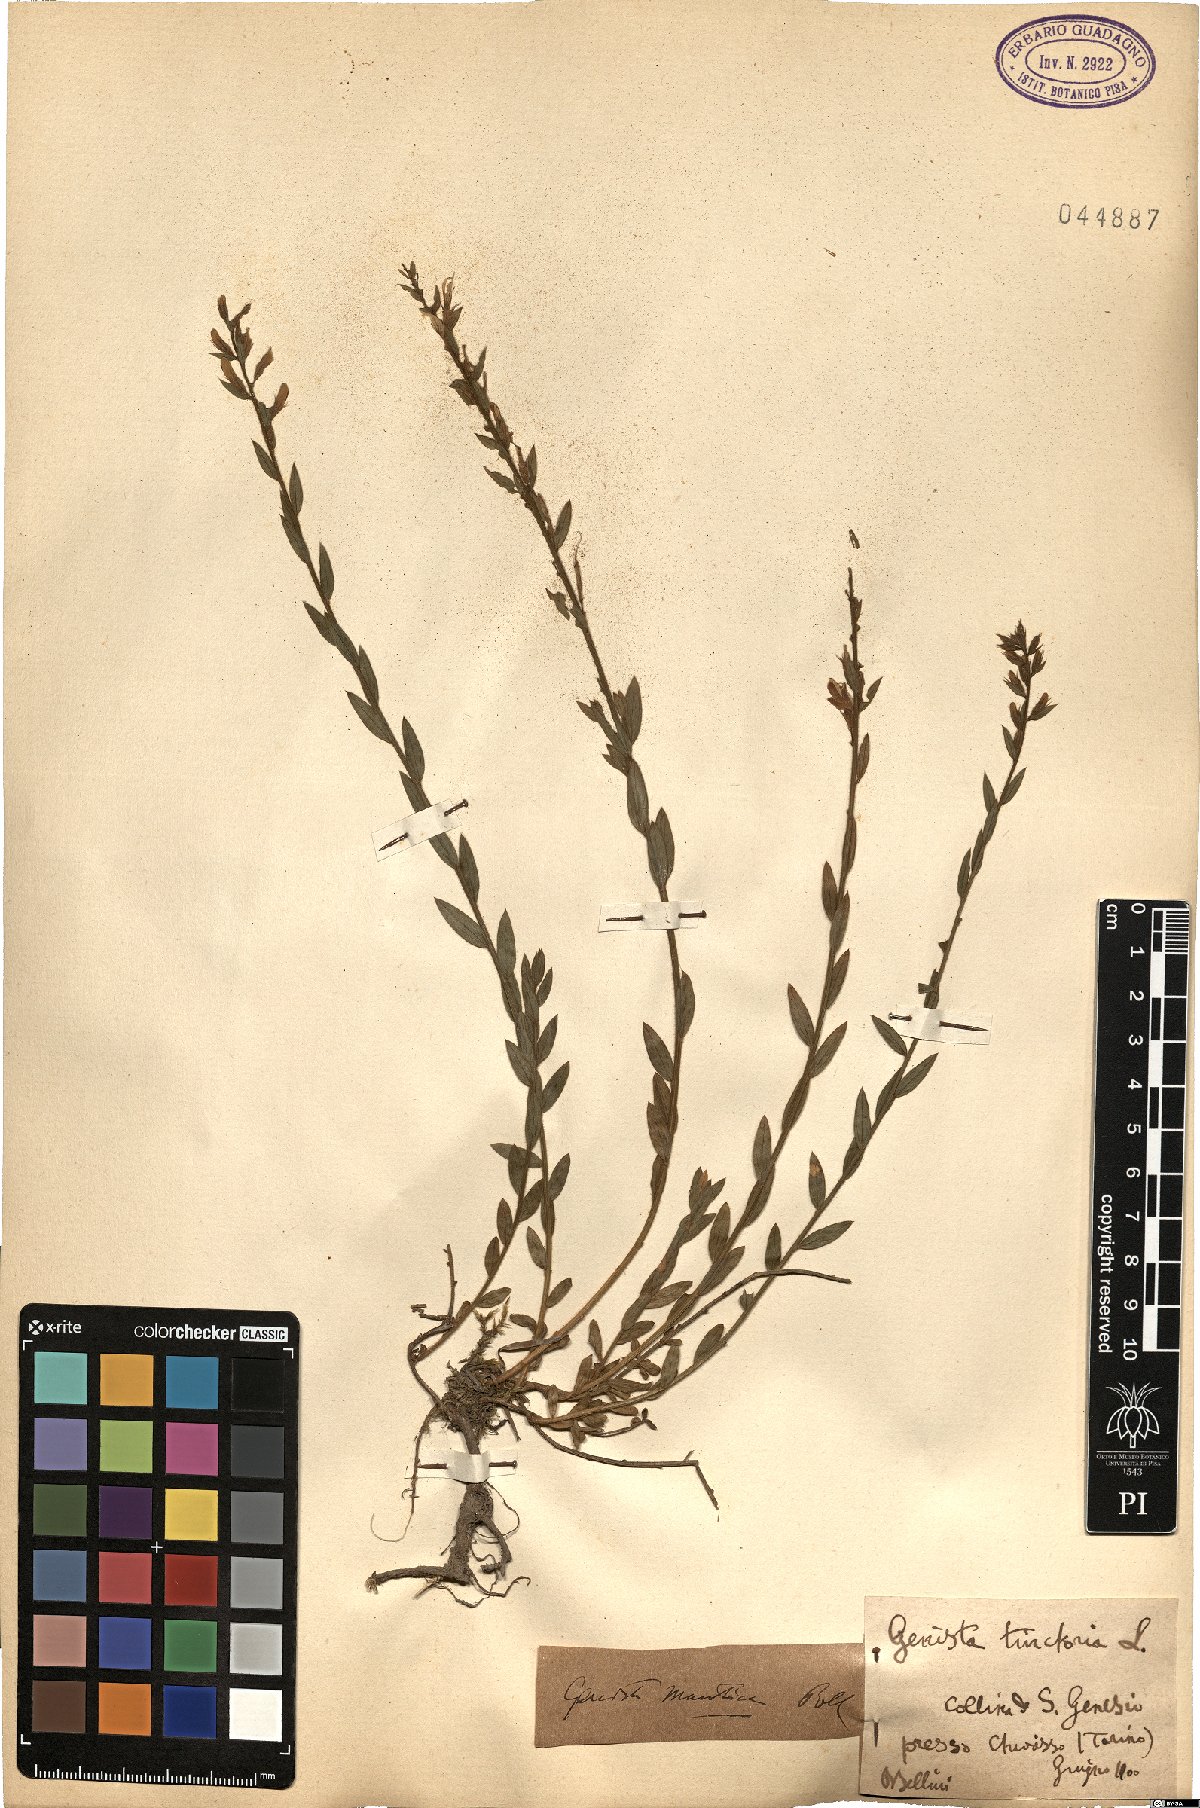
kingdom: Plantae
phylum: Tracheophyta
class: Magnoliopsida
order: Fabales
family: Fabaceae
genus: Genista
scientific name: Genista tinctoria
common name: Dyer's greenweed
